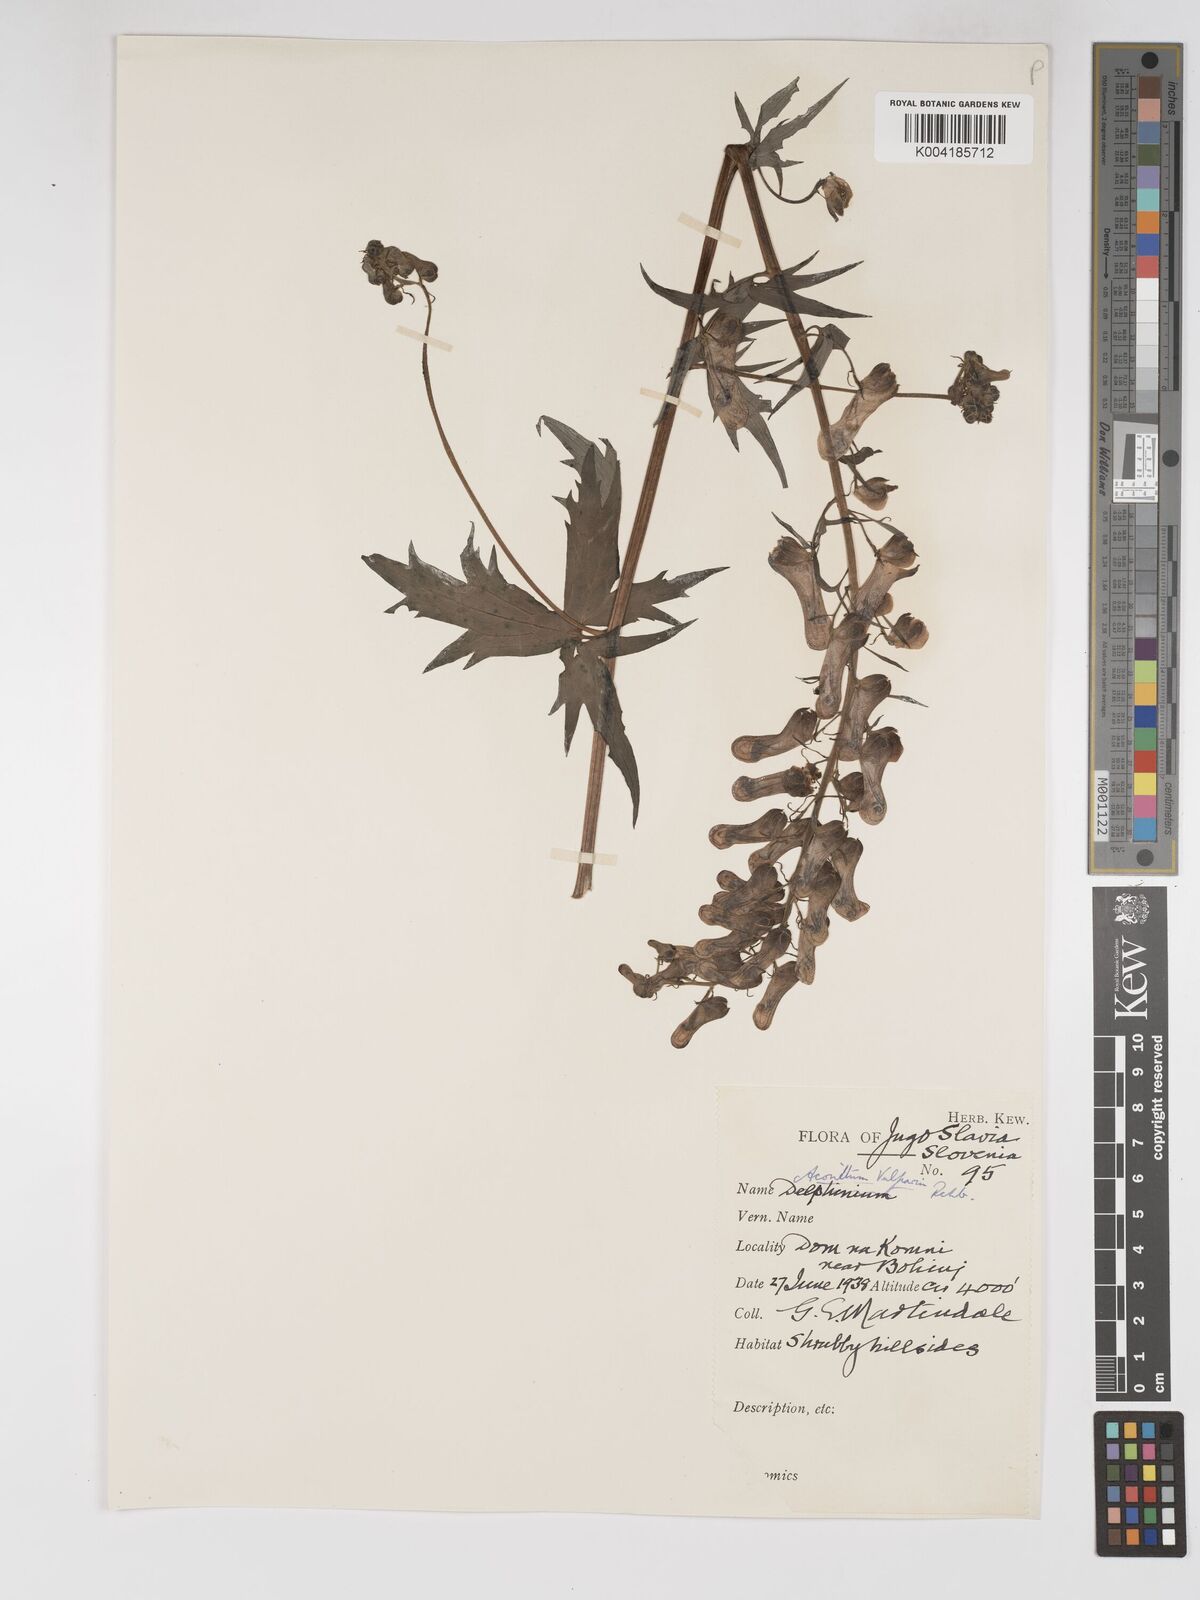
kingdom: Plantae
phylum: Tracheophyta
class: Magnoliopsida
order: Ranunculales
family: Ranunculaceae
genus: Aconitum
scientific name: Aconitum lycoctonum
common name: Wolf's-bane
